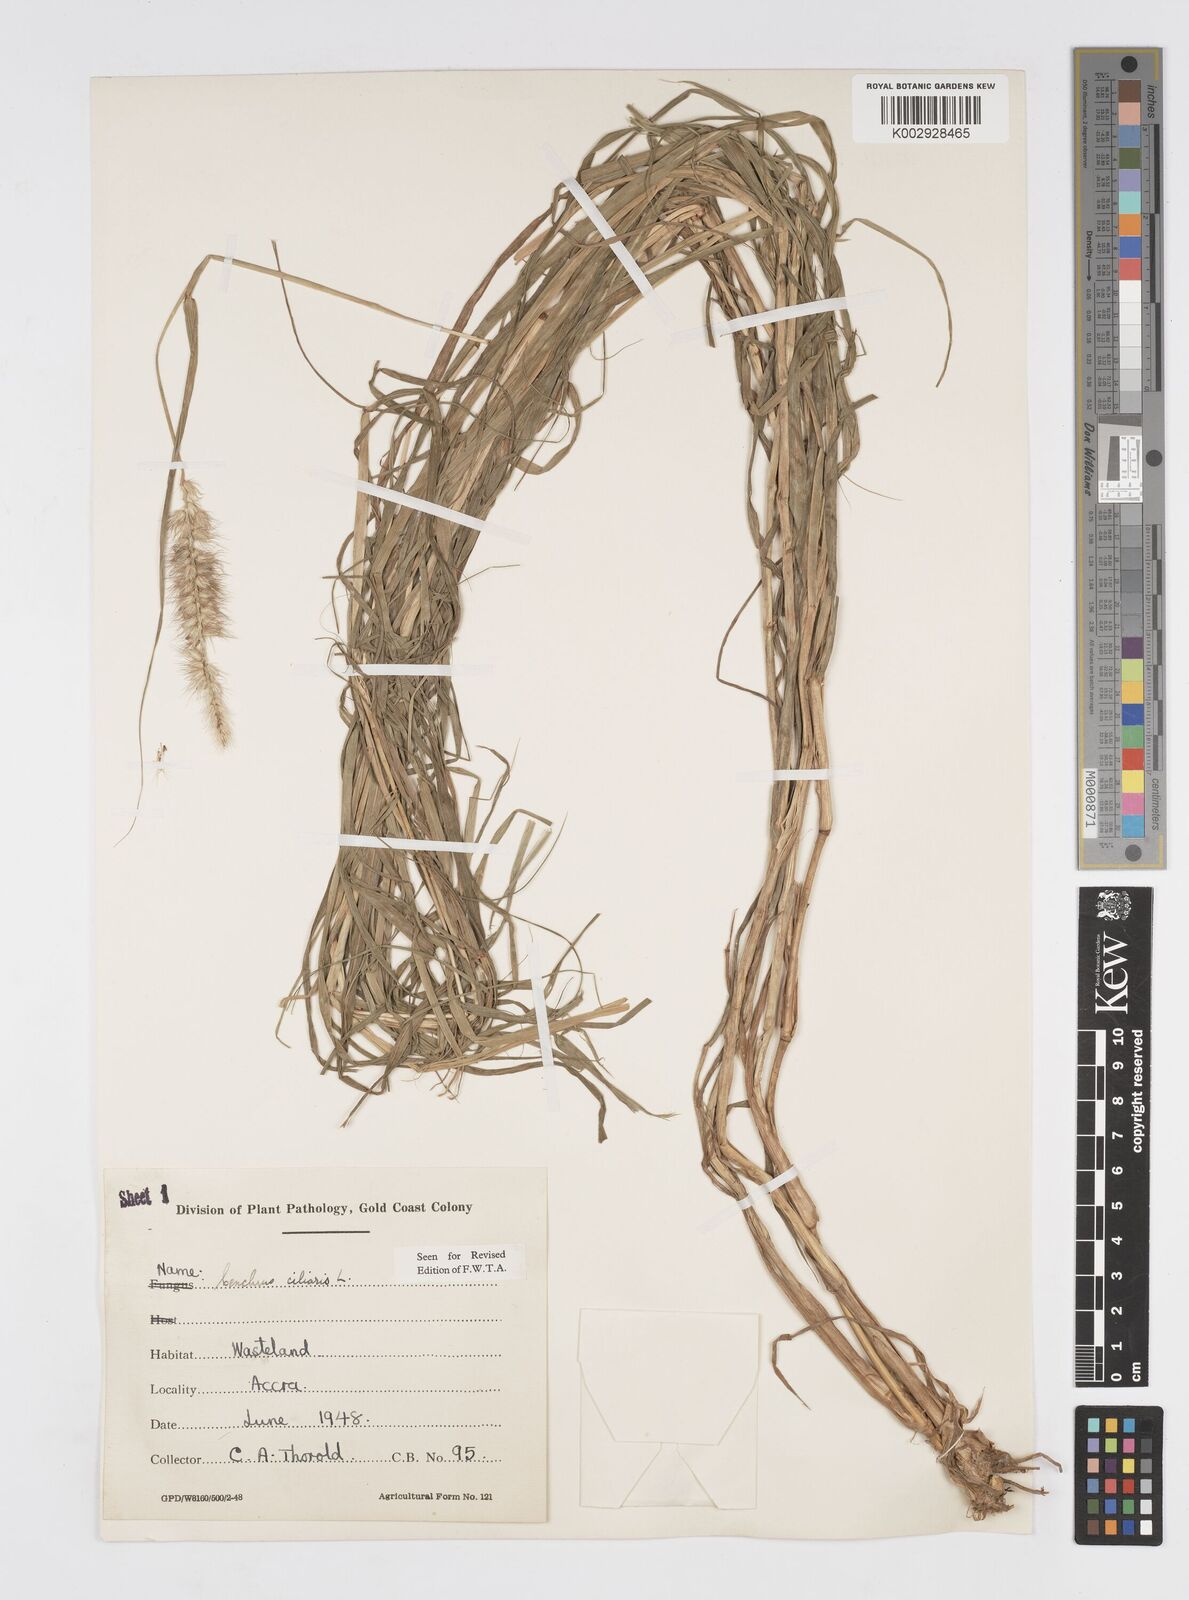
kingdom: Plantae
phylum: Tracheophyta
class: Liliopsida
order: Poales
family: Poaceae
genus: Cenchrus
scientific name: Cenchrus ciliaris
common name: Buffelgrass
